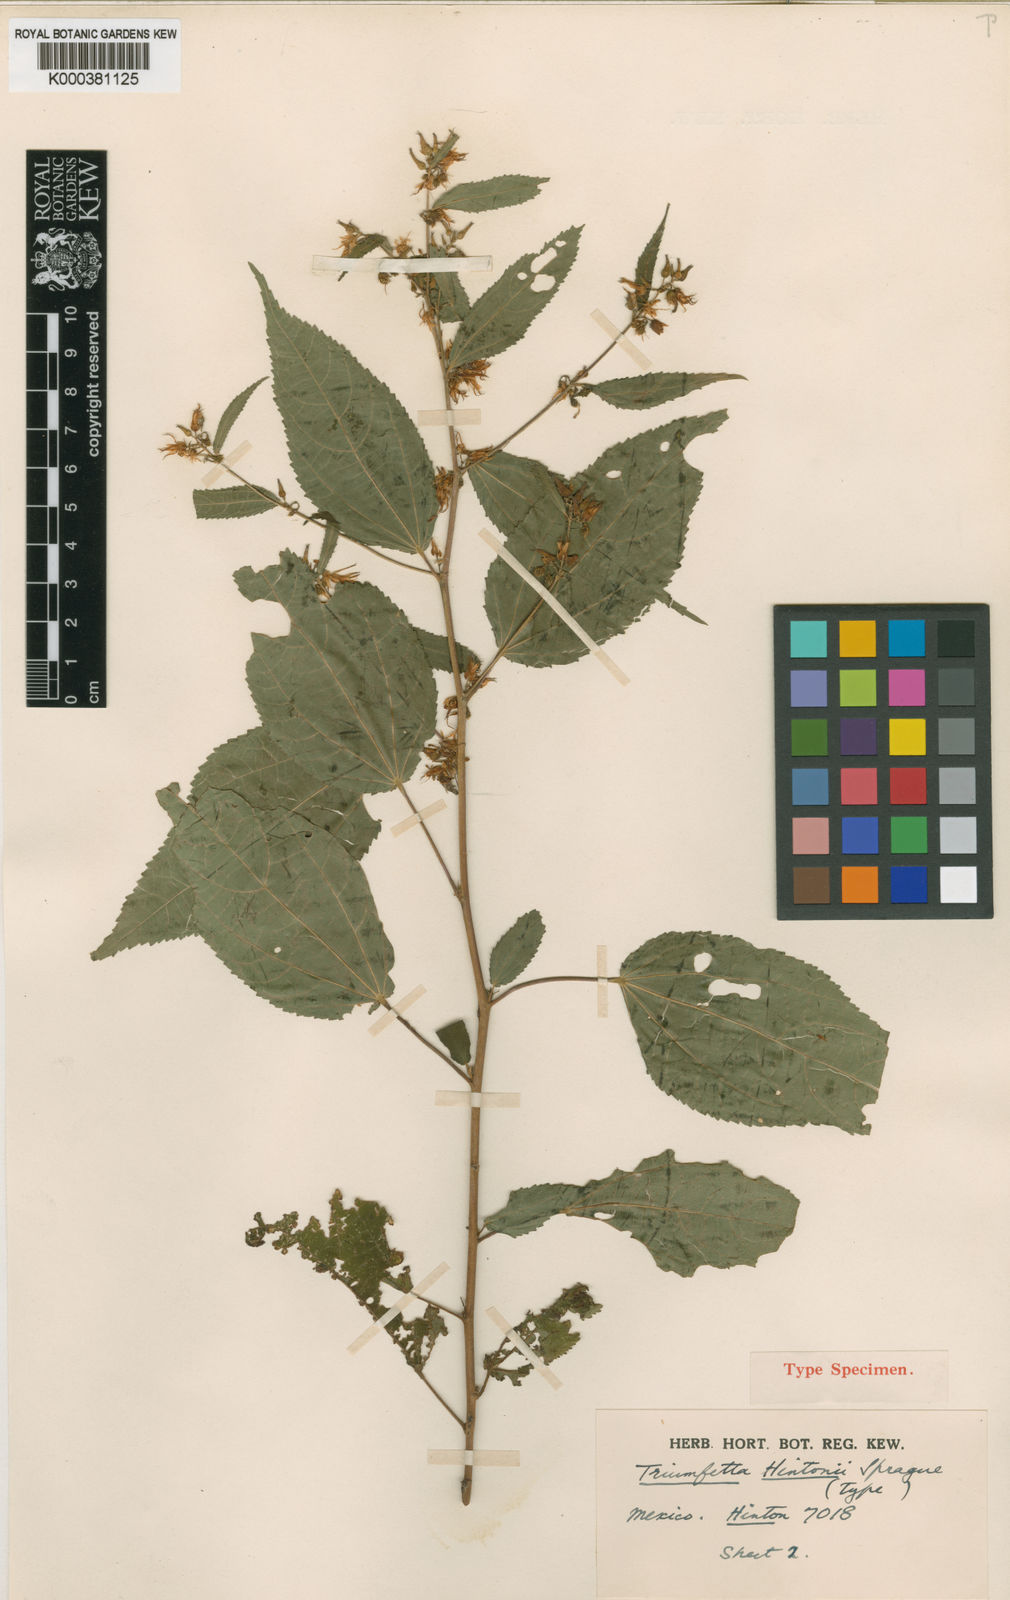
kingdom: Plantae
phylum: Tracheophyta
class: Magnoliopsida
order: Malvales
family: Malvaceae
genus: Triumfetta
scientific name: Triumfetta simplicifolia
